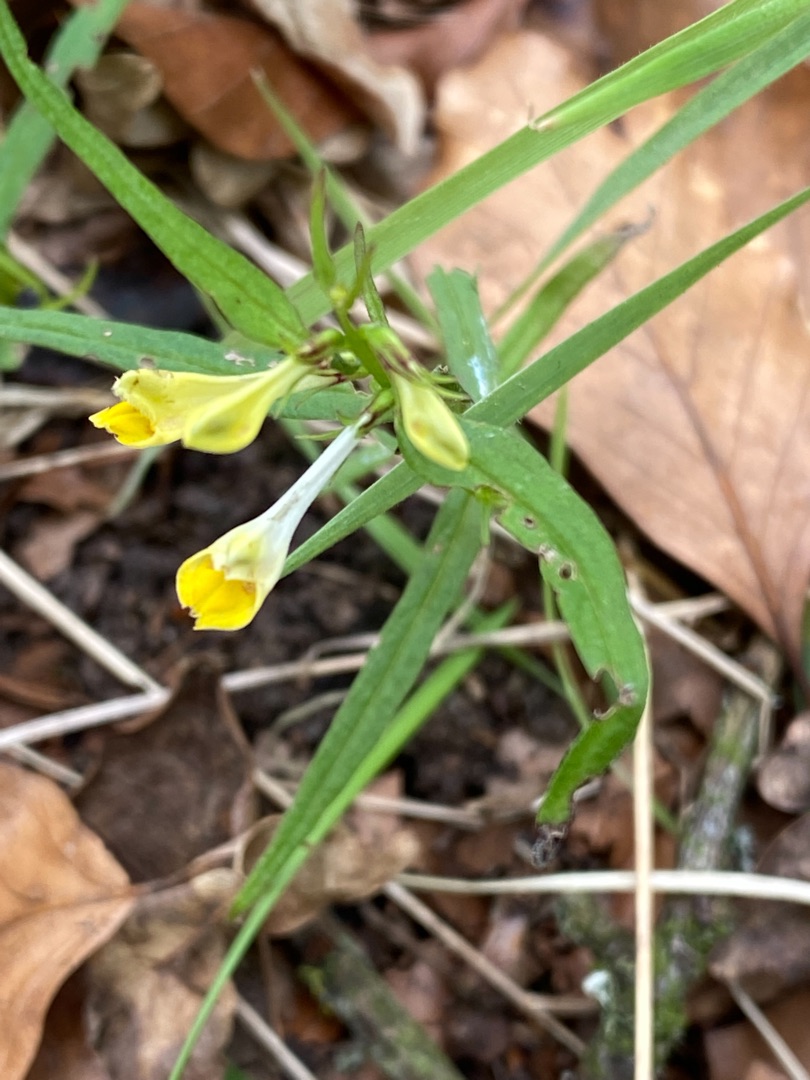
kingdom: Plantae
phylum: Tracheophyta
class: Magnoliopsida
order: Lamiales
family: Orobanchaceae
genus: Melampyrum
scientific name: Melampyrum pratense
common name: Almindelig kohvede
